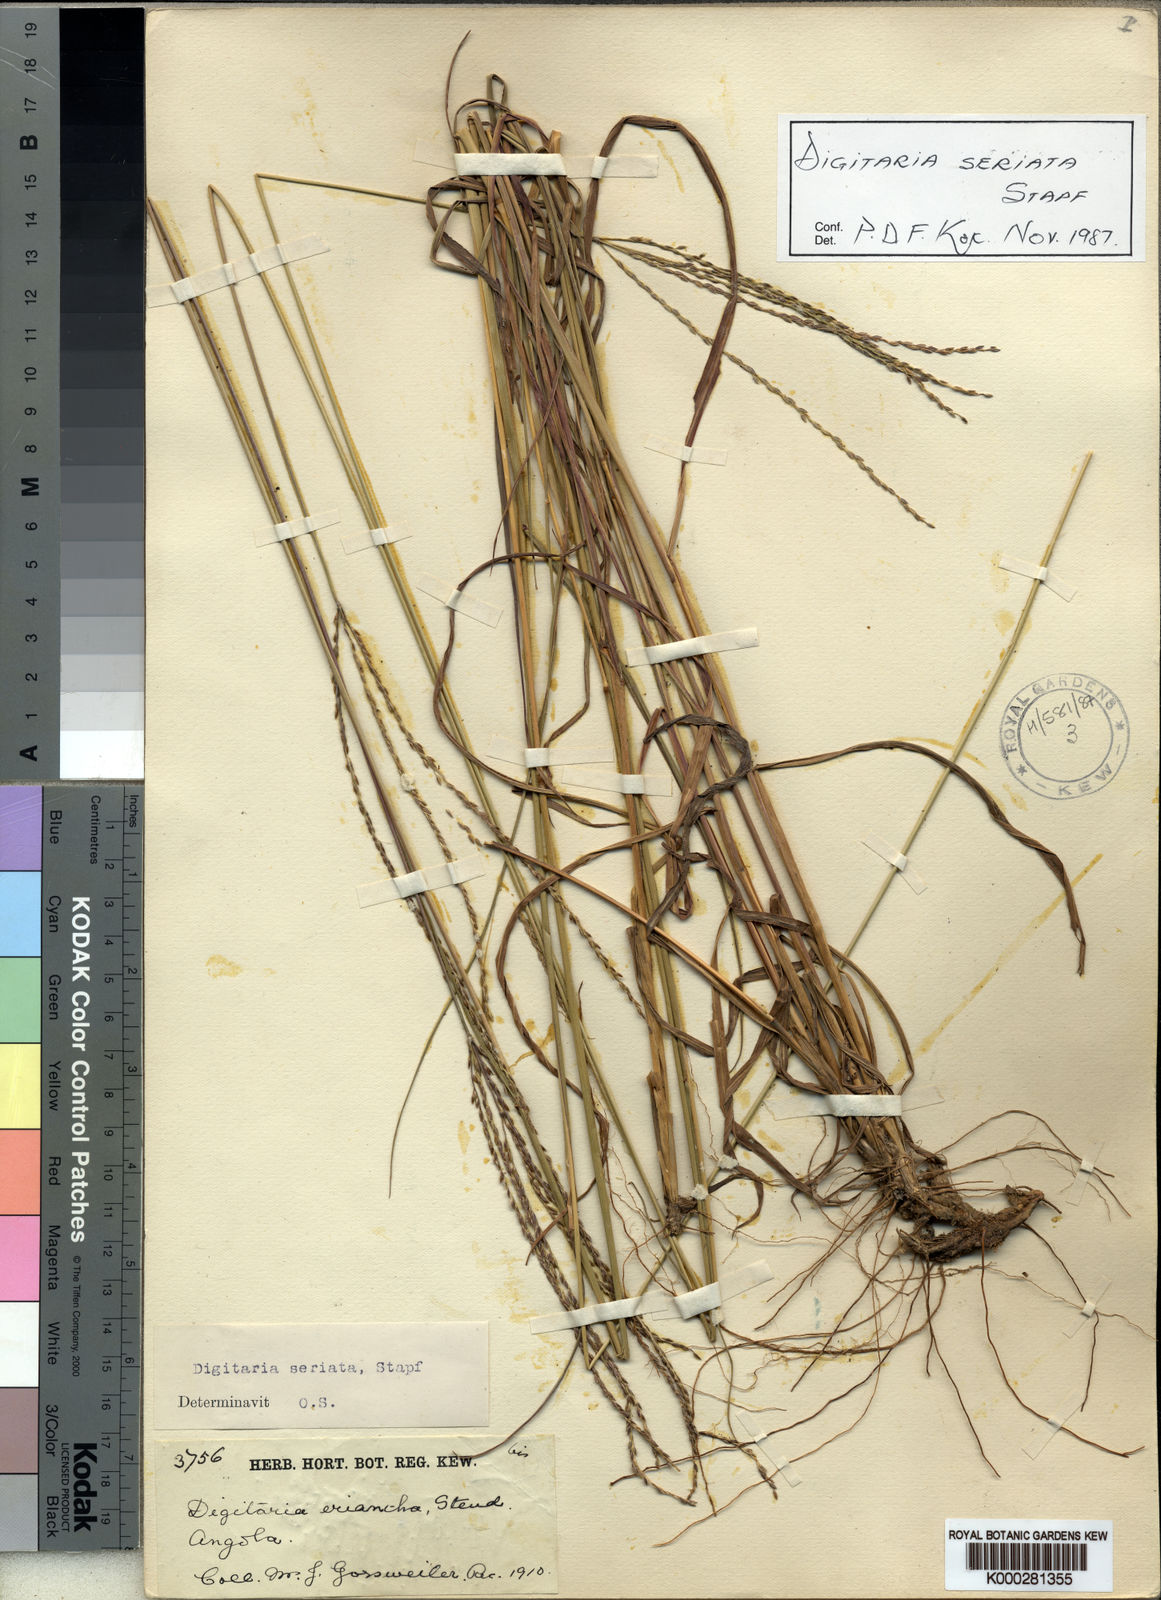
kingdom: Plantae
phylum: Tracheophyta
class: Liliopsida
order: Poales
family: Poaceae
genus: Digitaria
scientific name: Digitaria seriata
